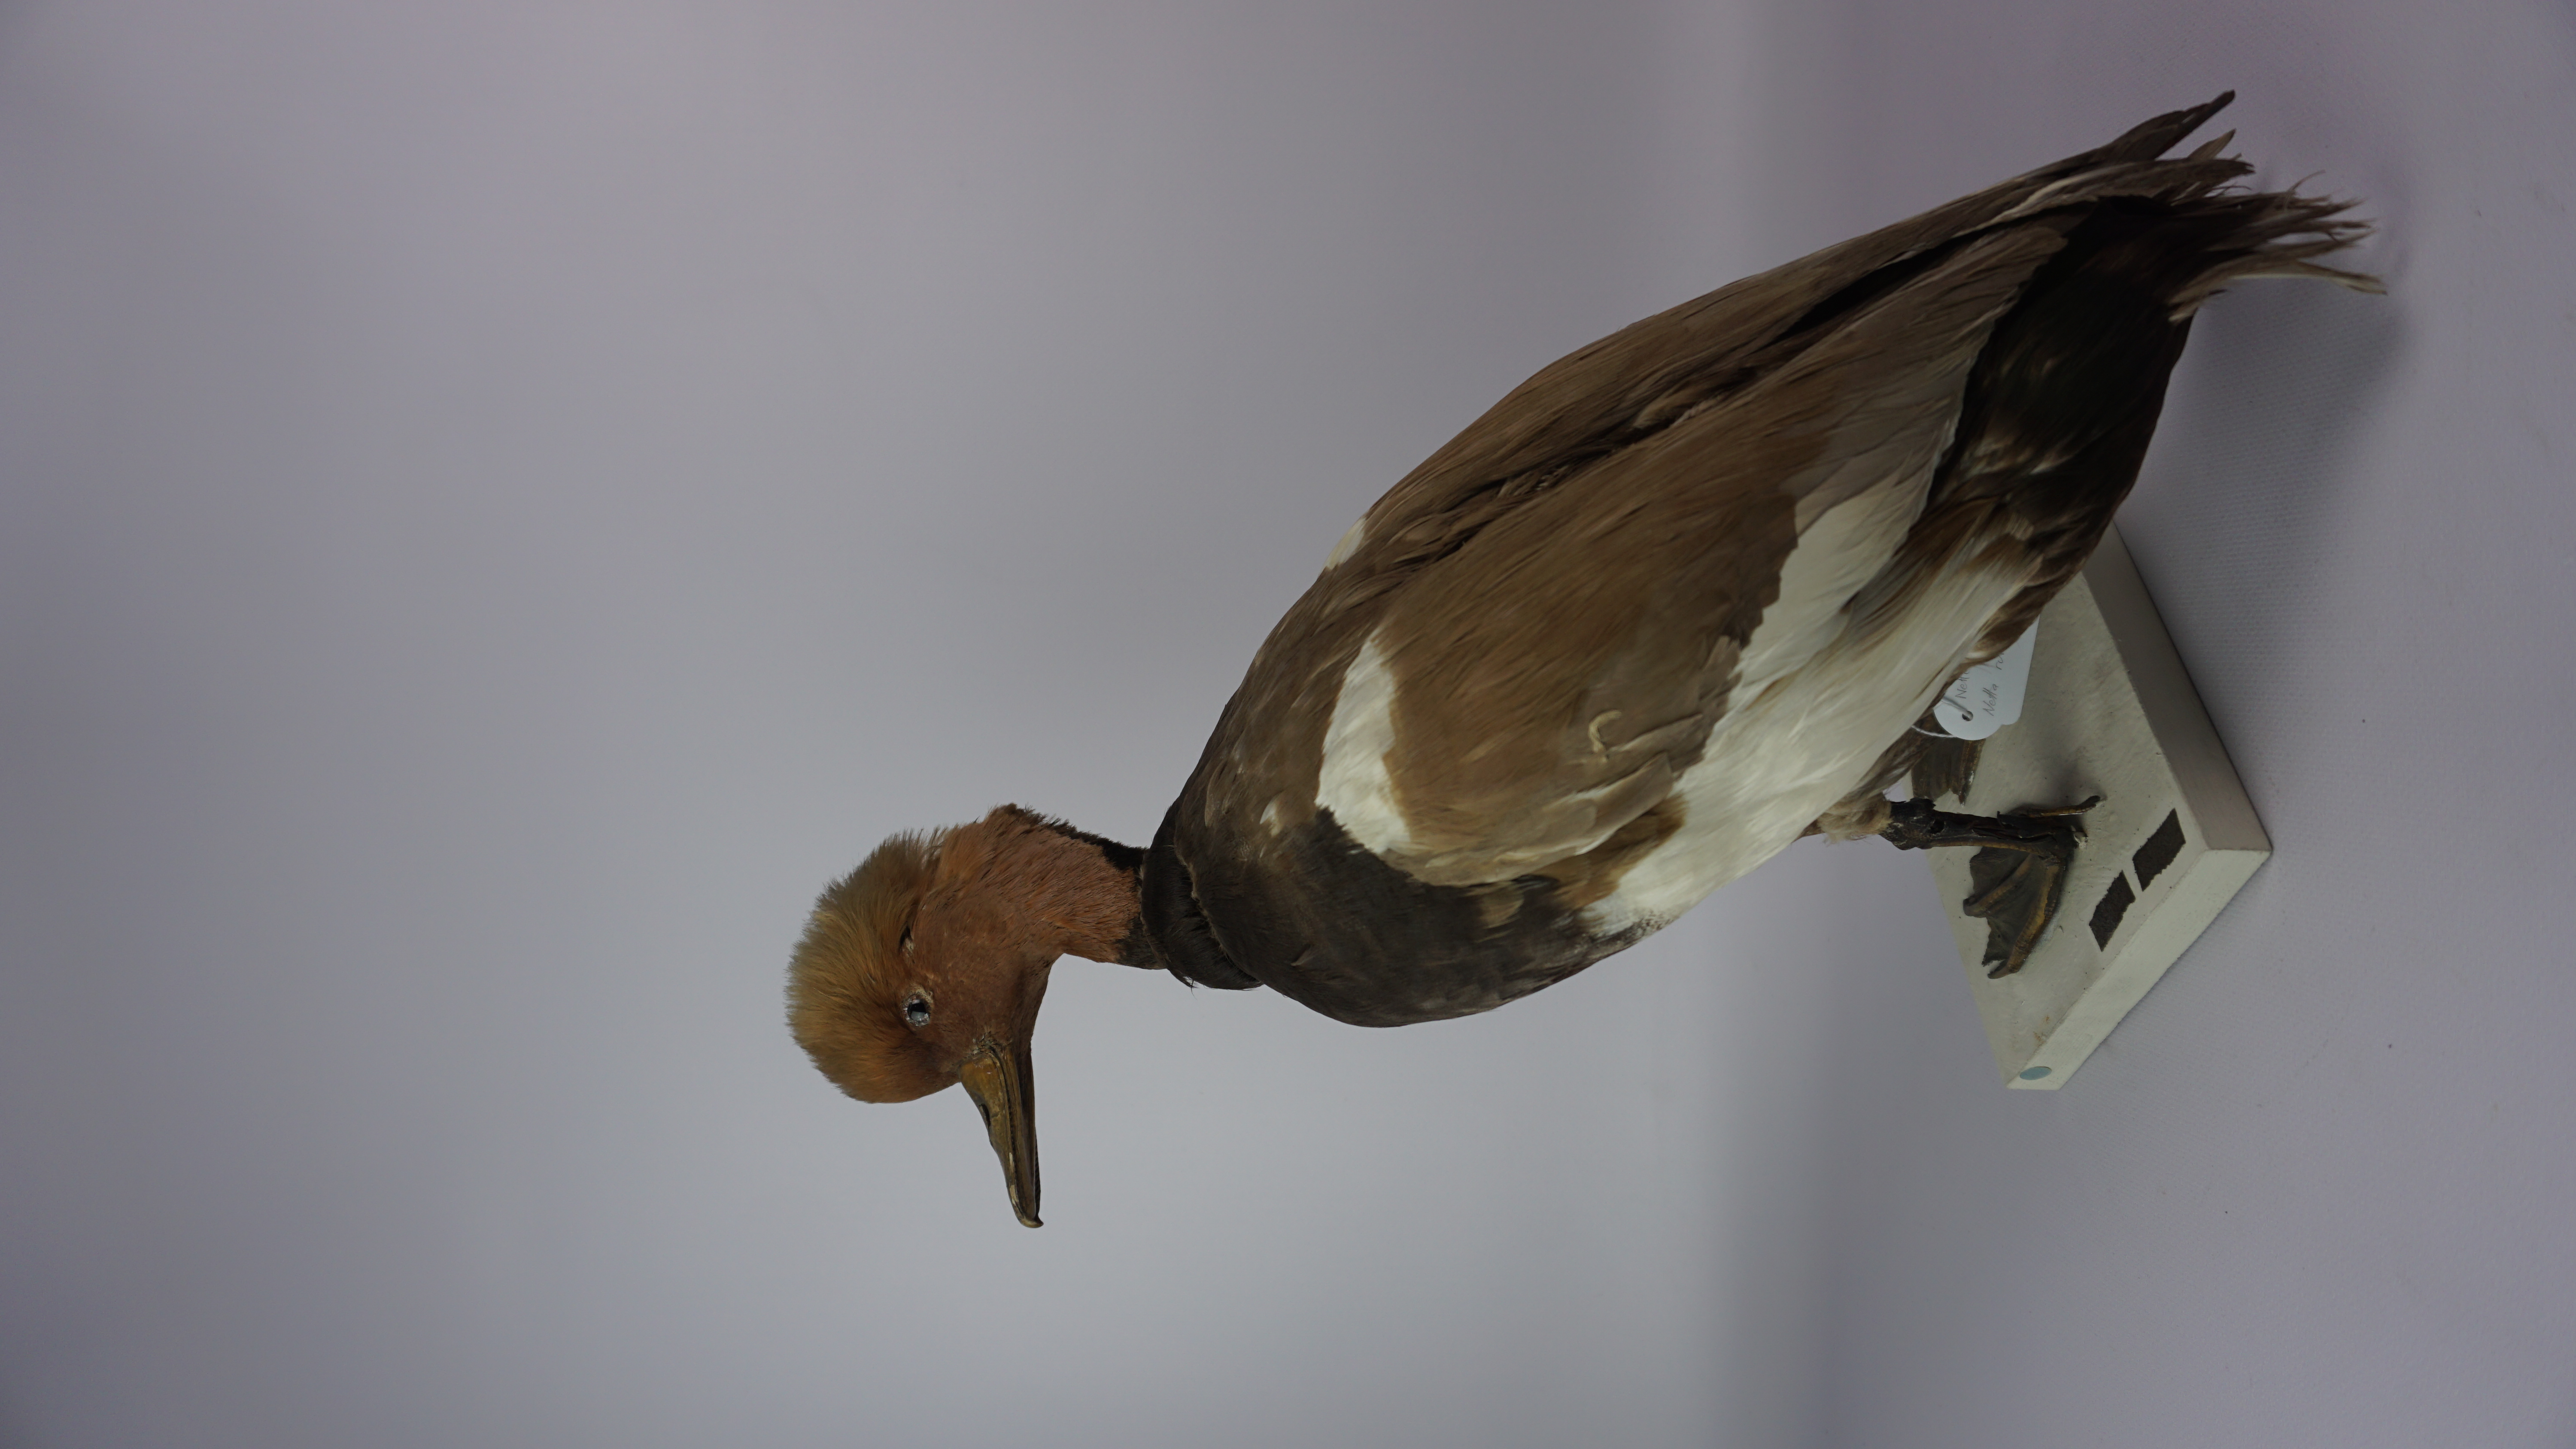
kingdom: Animalia
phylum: Chordata
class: Aves
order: Anseriformes
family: Anatidae
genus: Netta
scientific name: Netta rufina
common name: Red-crested pochard
